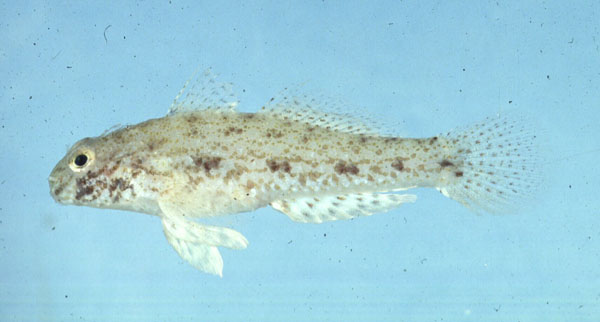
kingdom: Animalia
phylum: Chordata
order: Perciformes
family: Gobiidae
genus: Macrodontogobius
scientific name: Macrodontogobius wilburi
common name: Largetooth goby
